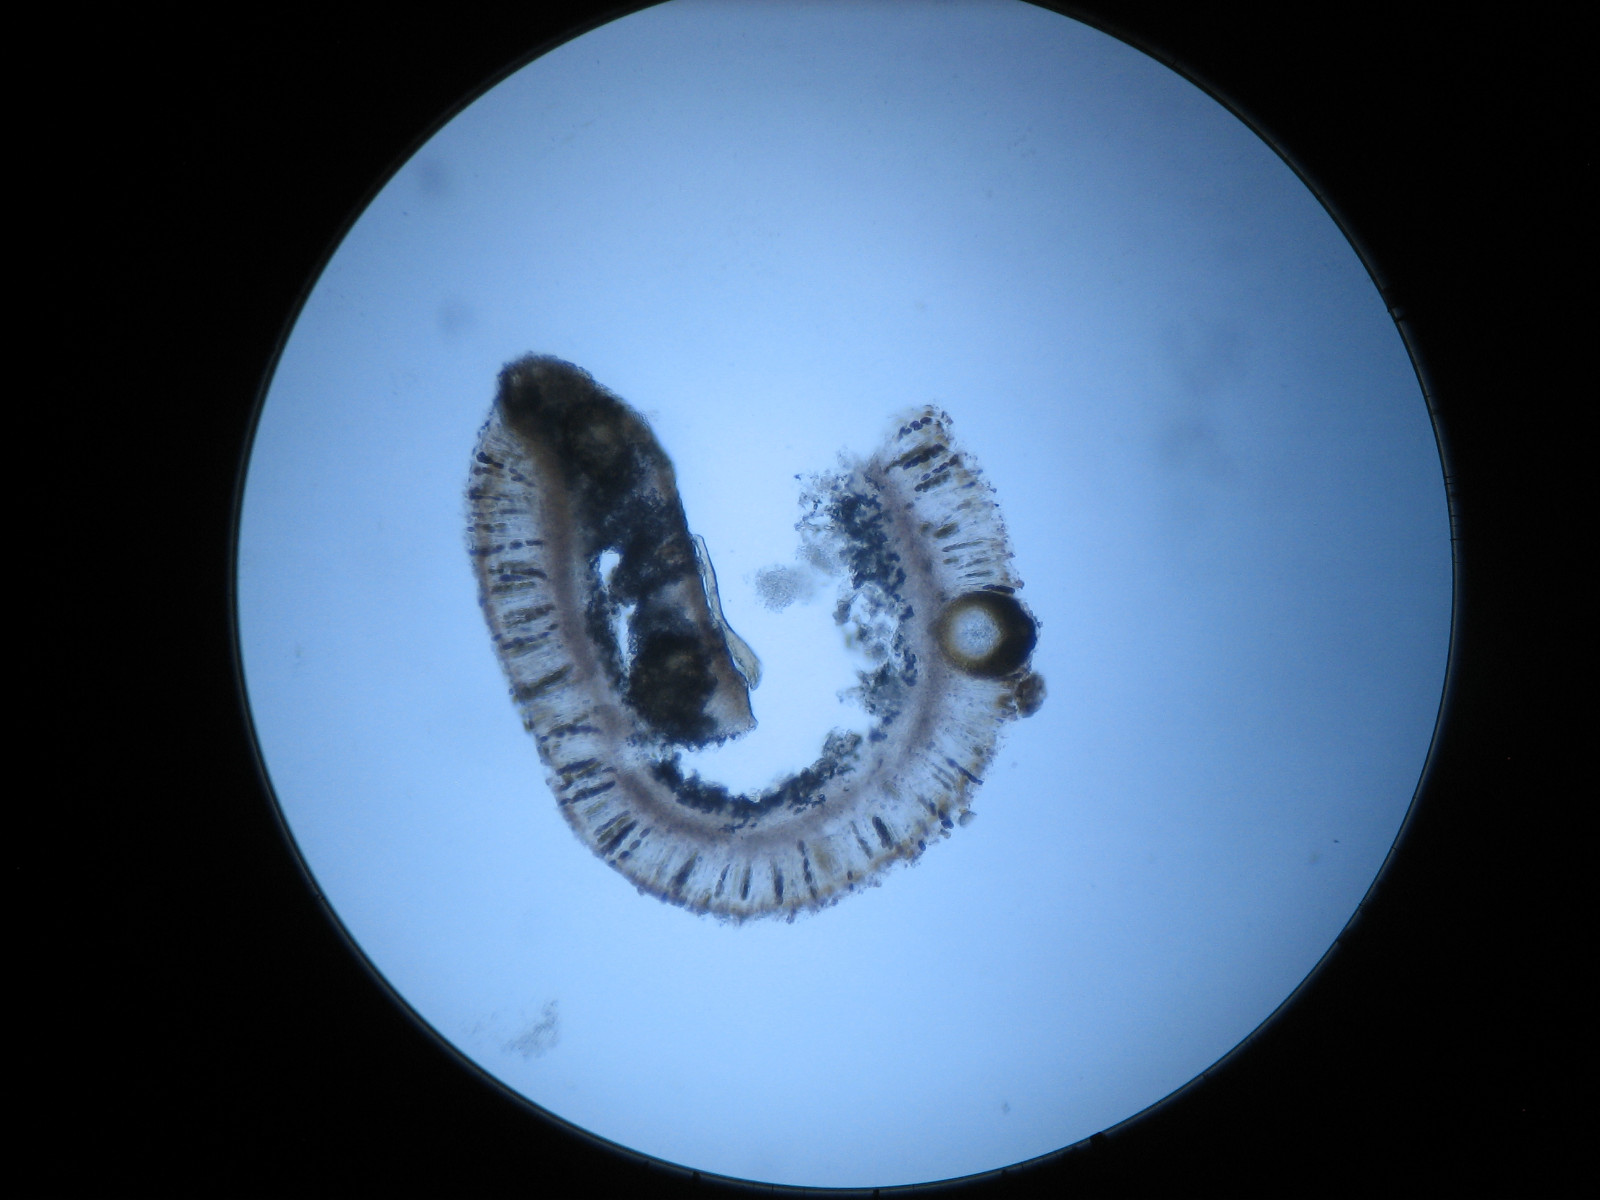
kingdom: Fungi
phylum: Ascomycota
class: Dothideomycetes
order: Pleosporales
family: Phaeosphaeriaceae
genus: Didymocyrtis
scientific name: Didymocyrtis epiphyscia
